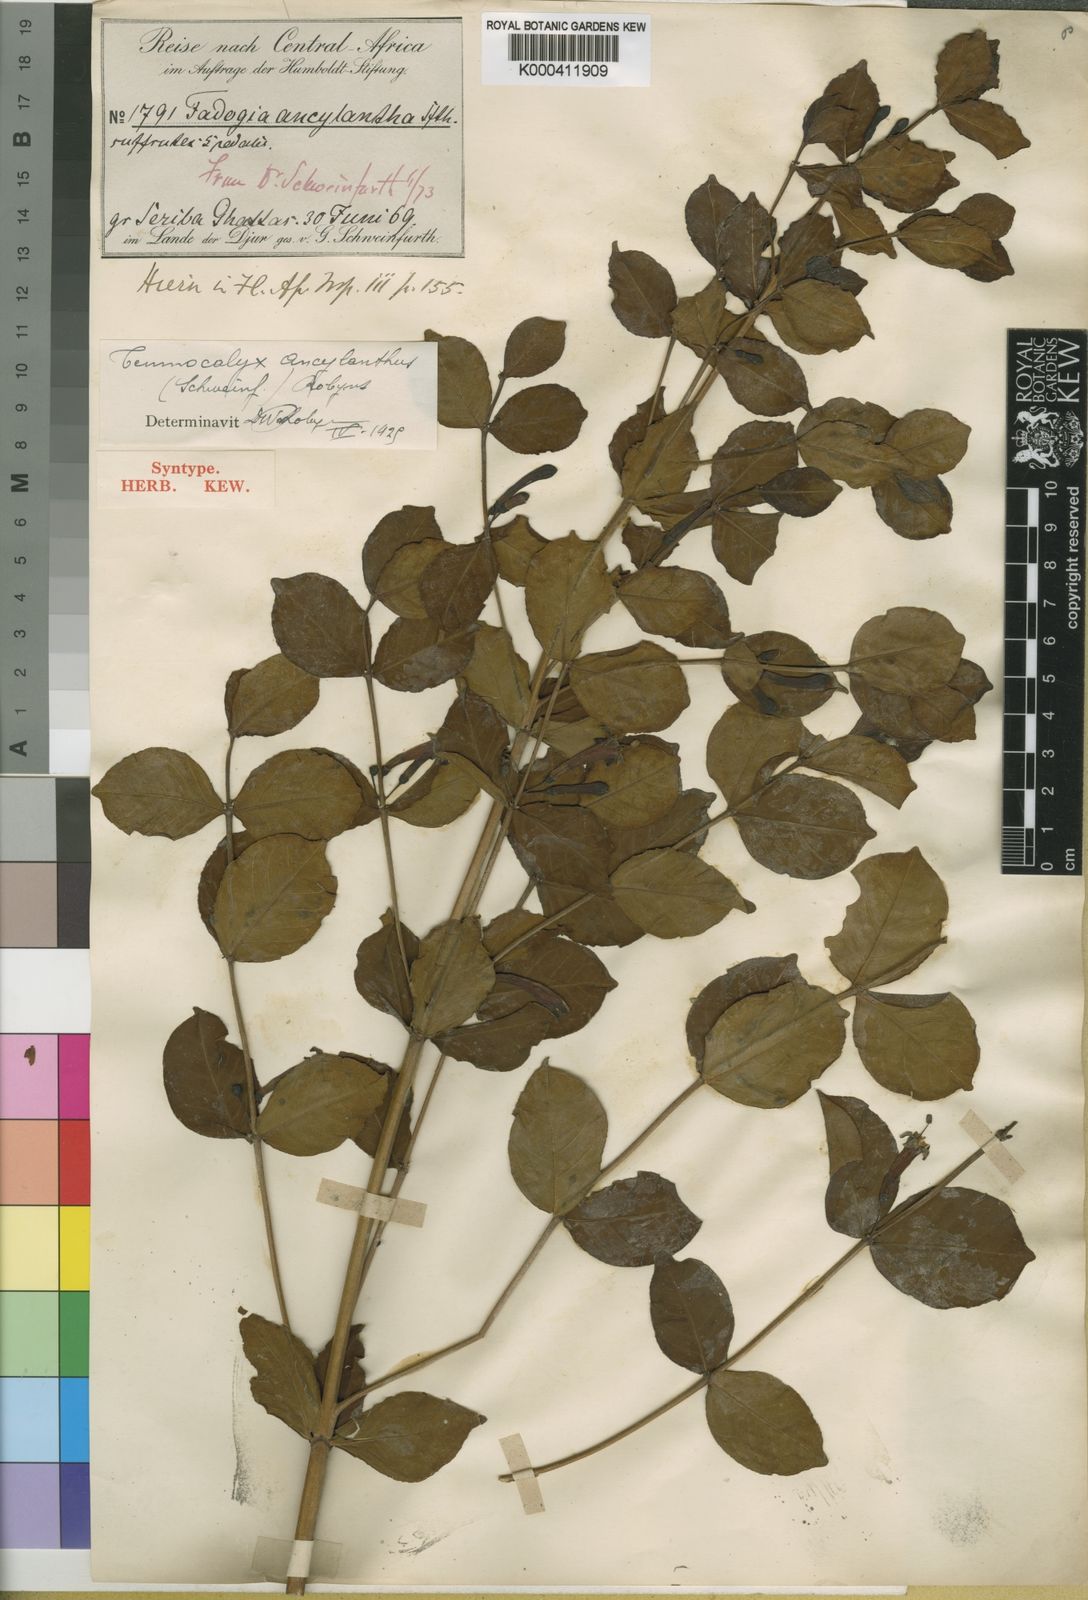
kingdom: Plantae
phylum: Tracheophyta
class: Magnoliopsida
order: Gentianales
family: Rubiaceae
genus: Fadogia
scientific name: Fadogia
